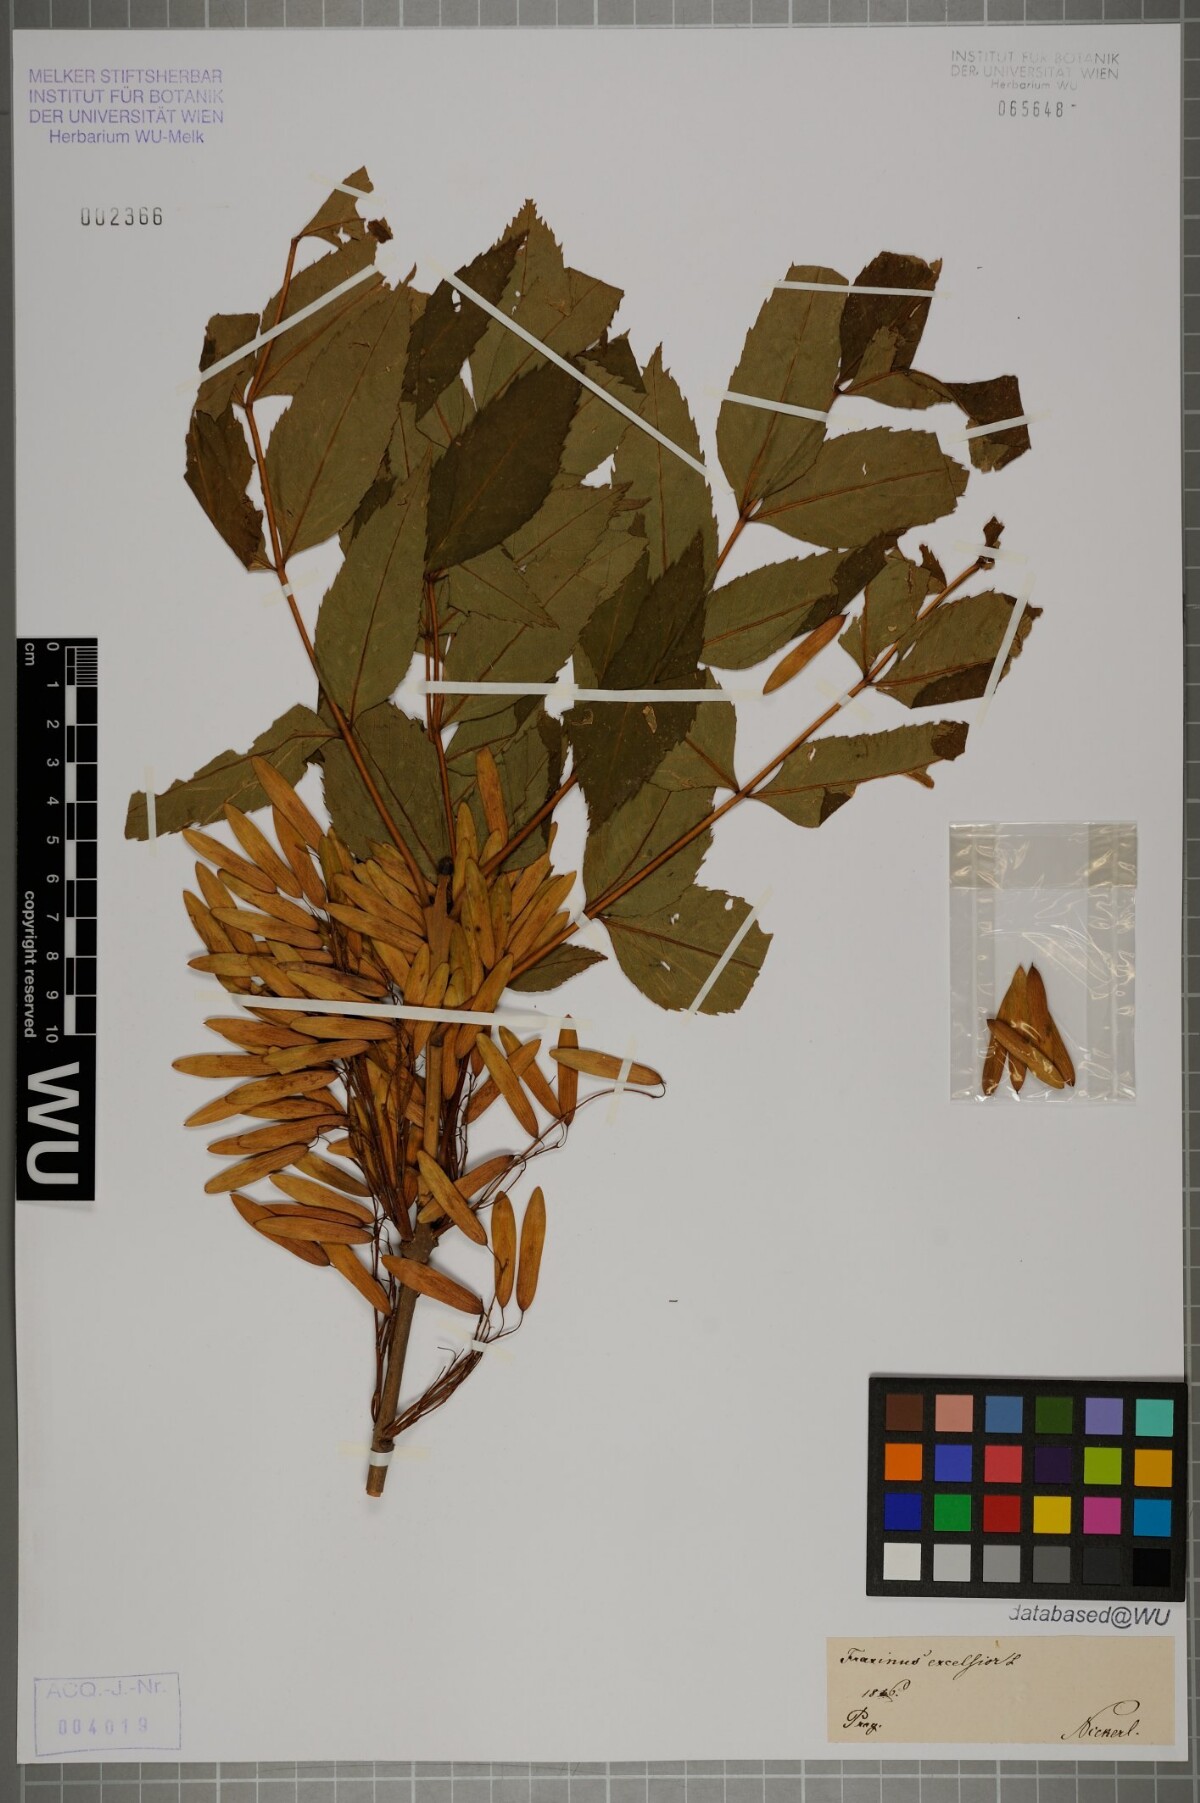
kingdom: Plantae
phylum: Tracheophyta
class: Magnoliopsida
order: Lamiales
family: Oleaceae
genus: Fraxinus
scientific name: Fraxinus excelsior
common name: European ash
